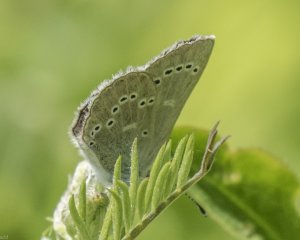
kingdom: Animalia
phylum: Arthropoda
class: Insecta
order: Lepidoptera
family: Lycaenidae
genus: Glaucopsyche
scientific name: Glaucopsyche lygdamus
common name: Silvery Blue
